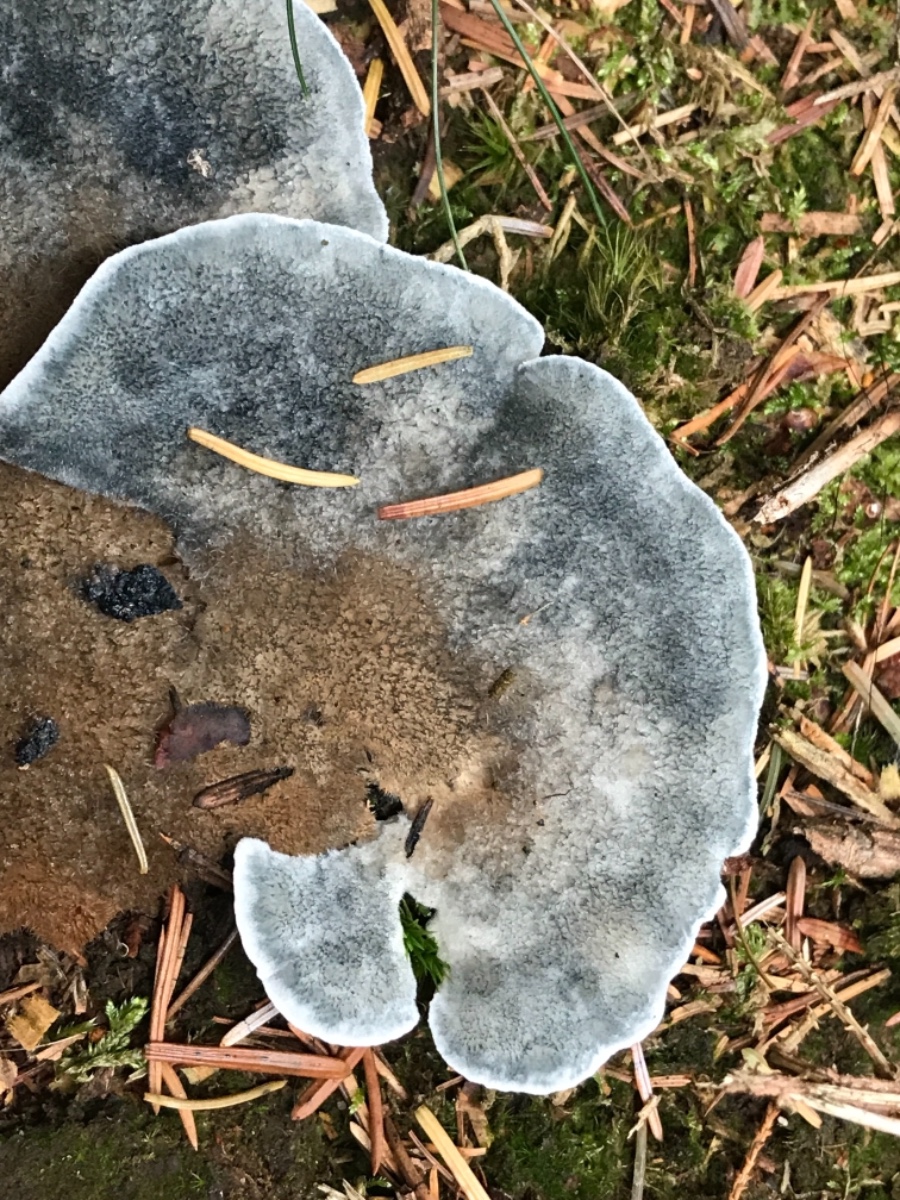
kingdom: Fungi
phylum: Basidiomycota
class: Agaricomycetes
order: Polyporales
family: Polyporaceae
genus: Cyanosporus
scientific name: Cyanosporus caesius
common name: blålig kødporesvamp
